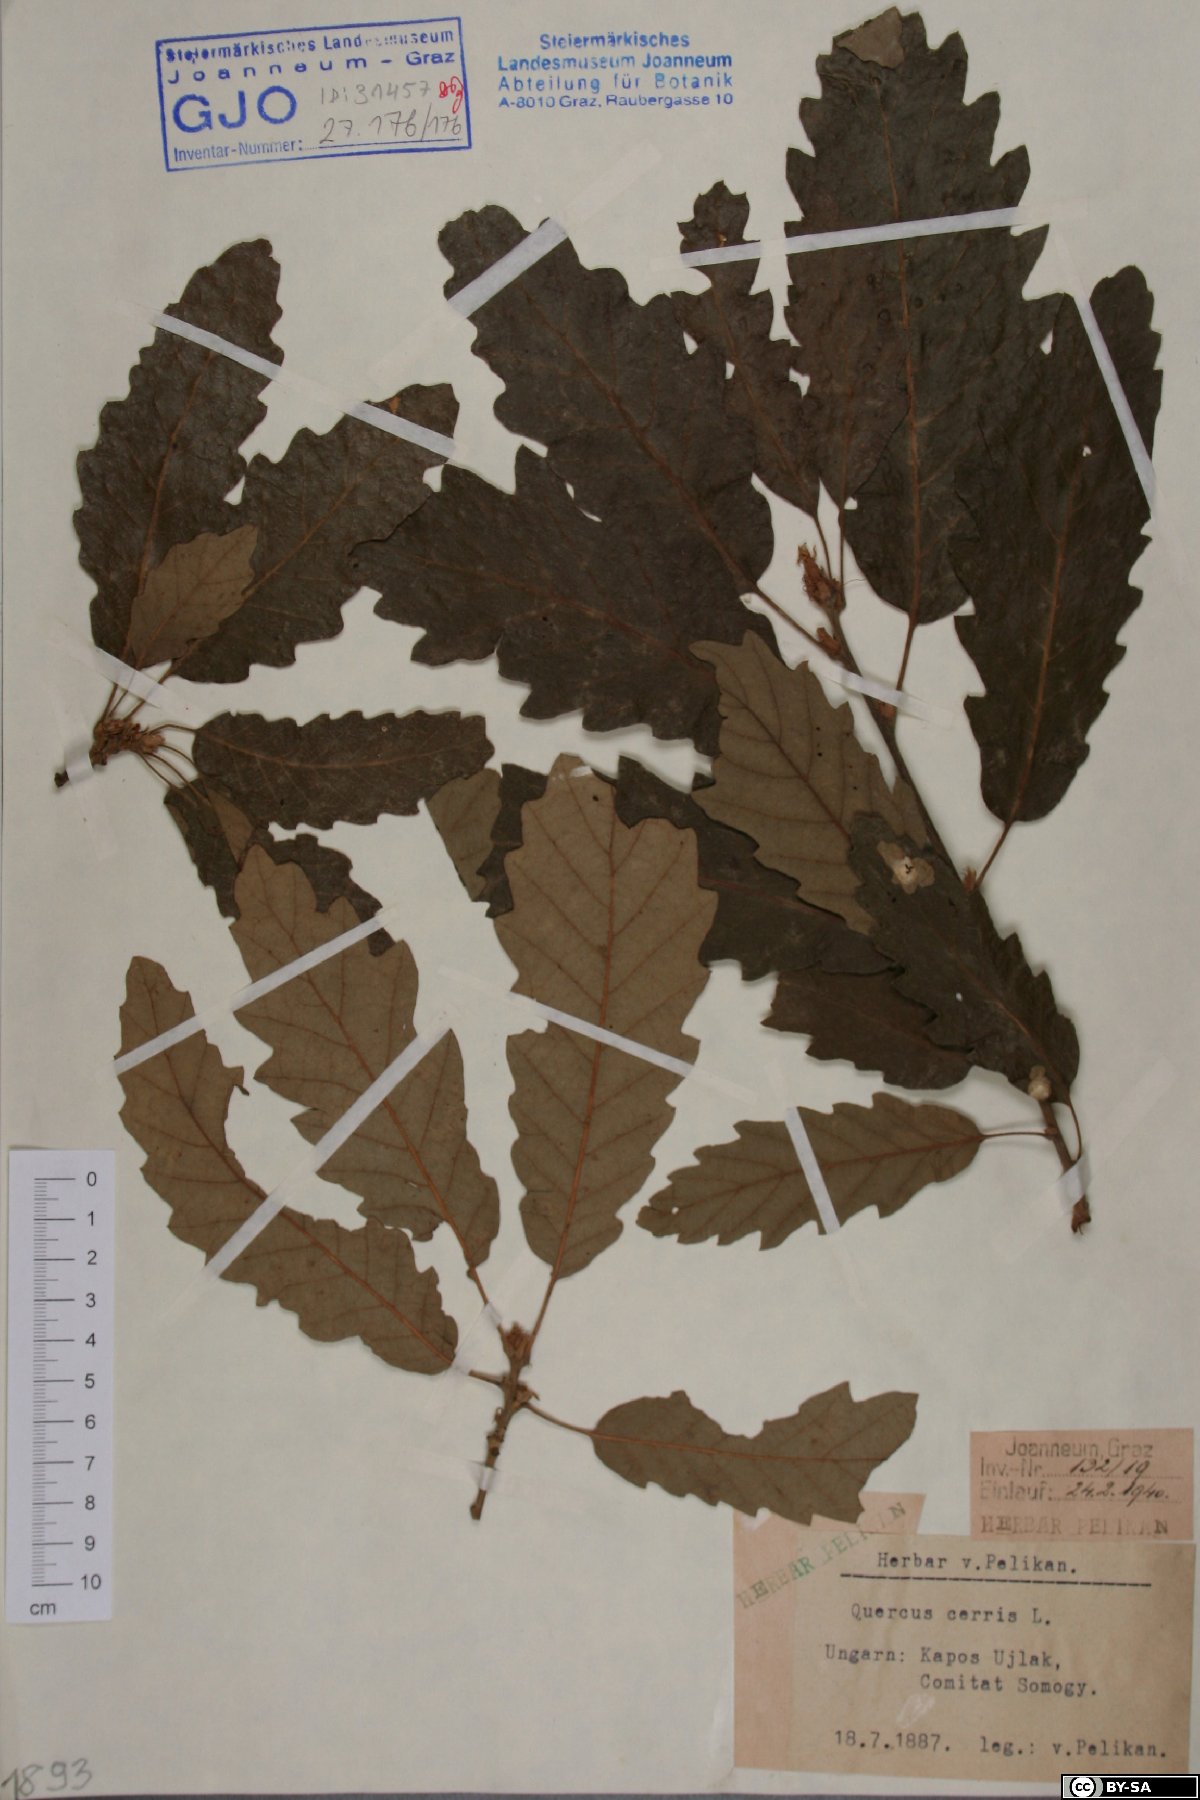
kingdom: Plantae
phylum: Tracheophyta
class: Magnoliopsida
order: Fagales
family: Fagaceae
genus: Quercus
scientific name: Quercus cerris
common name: Turkey oak
